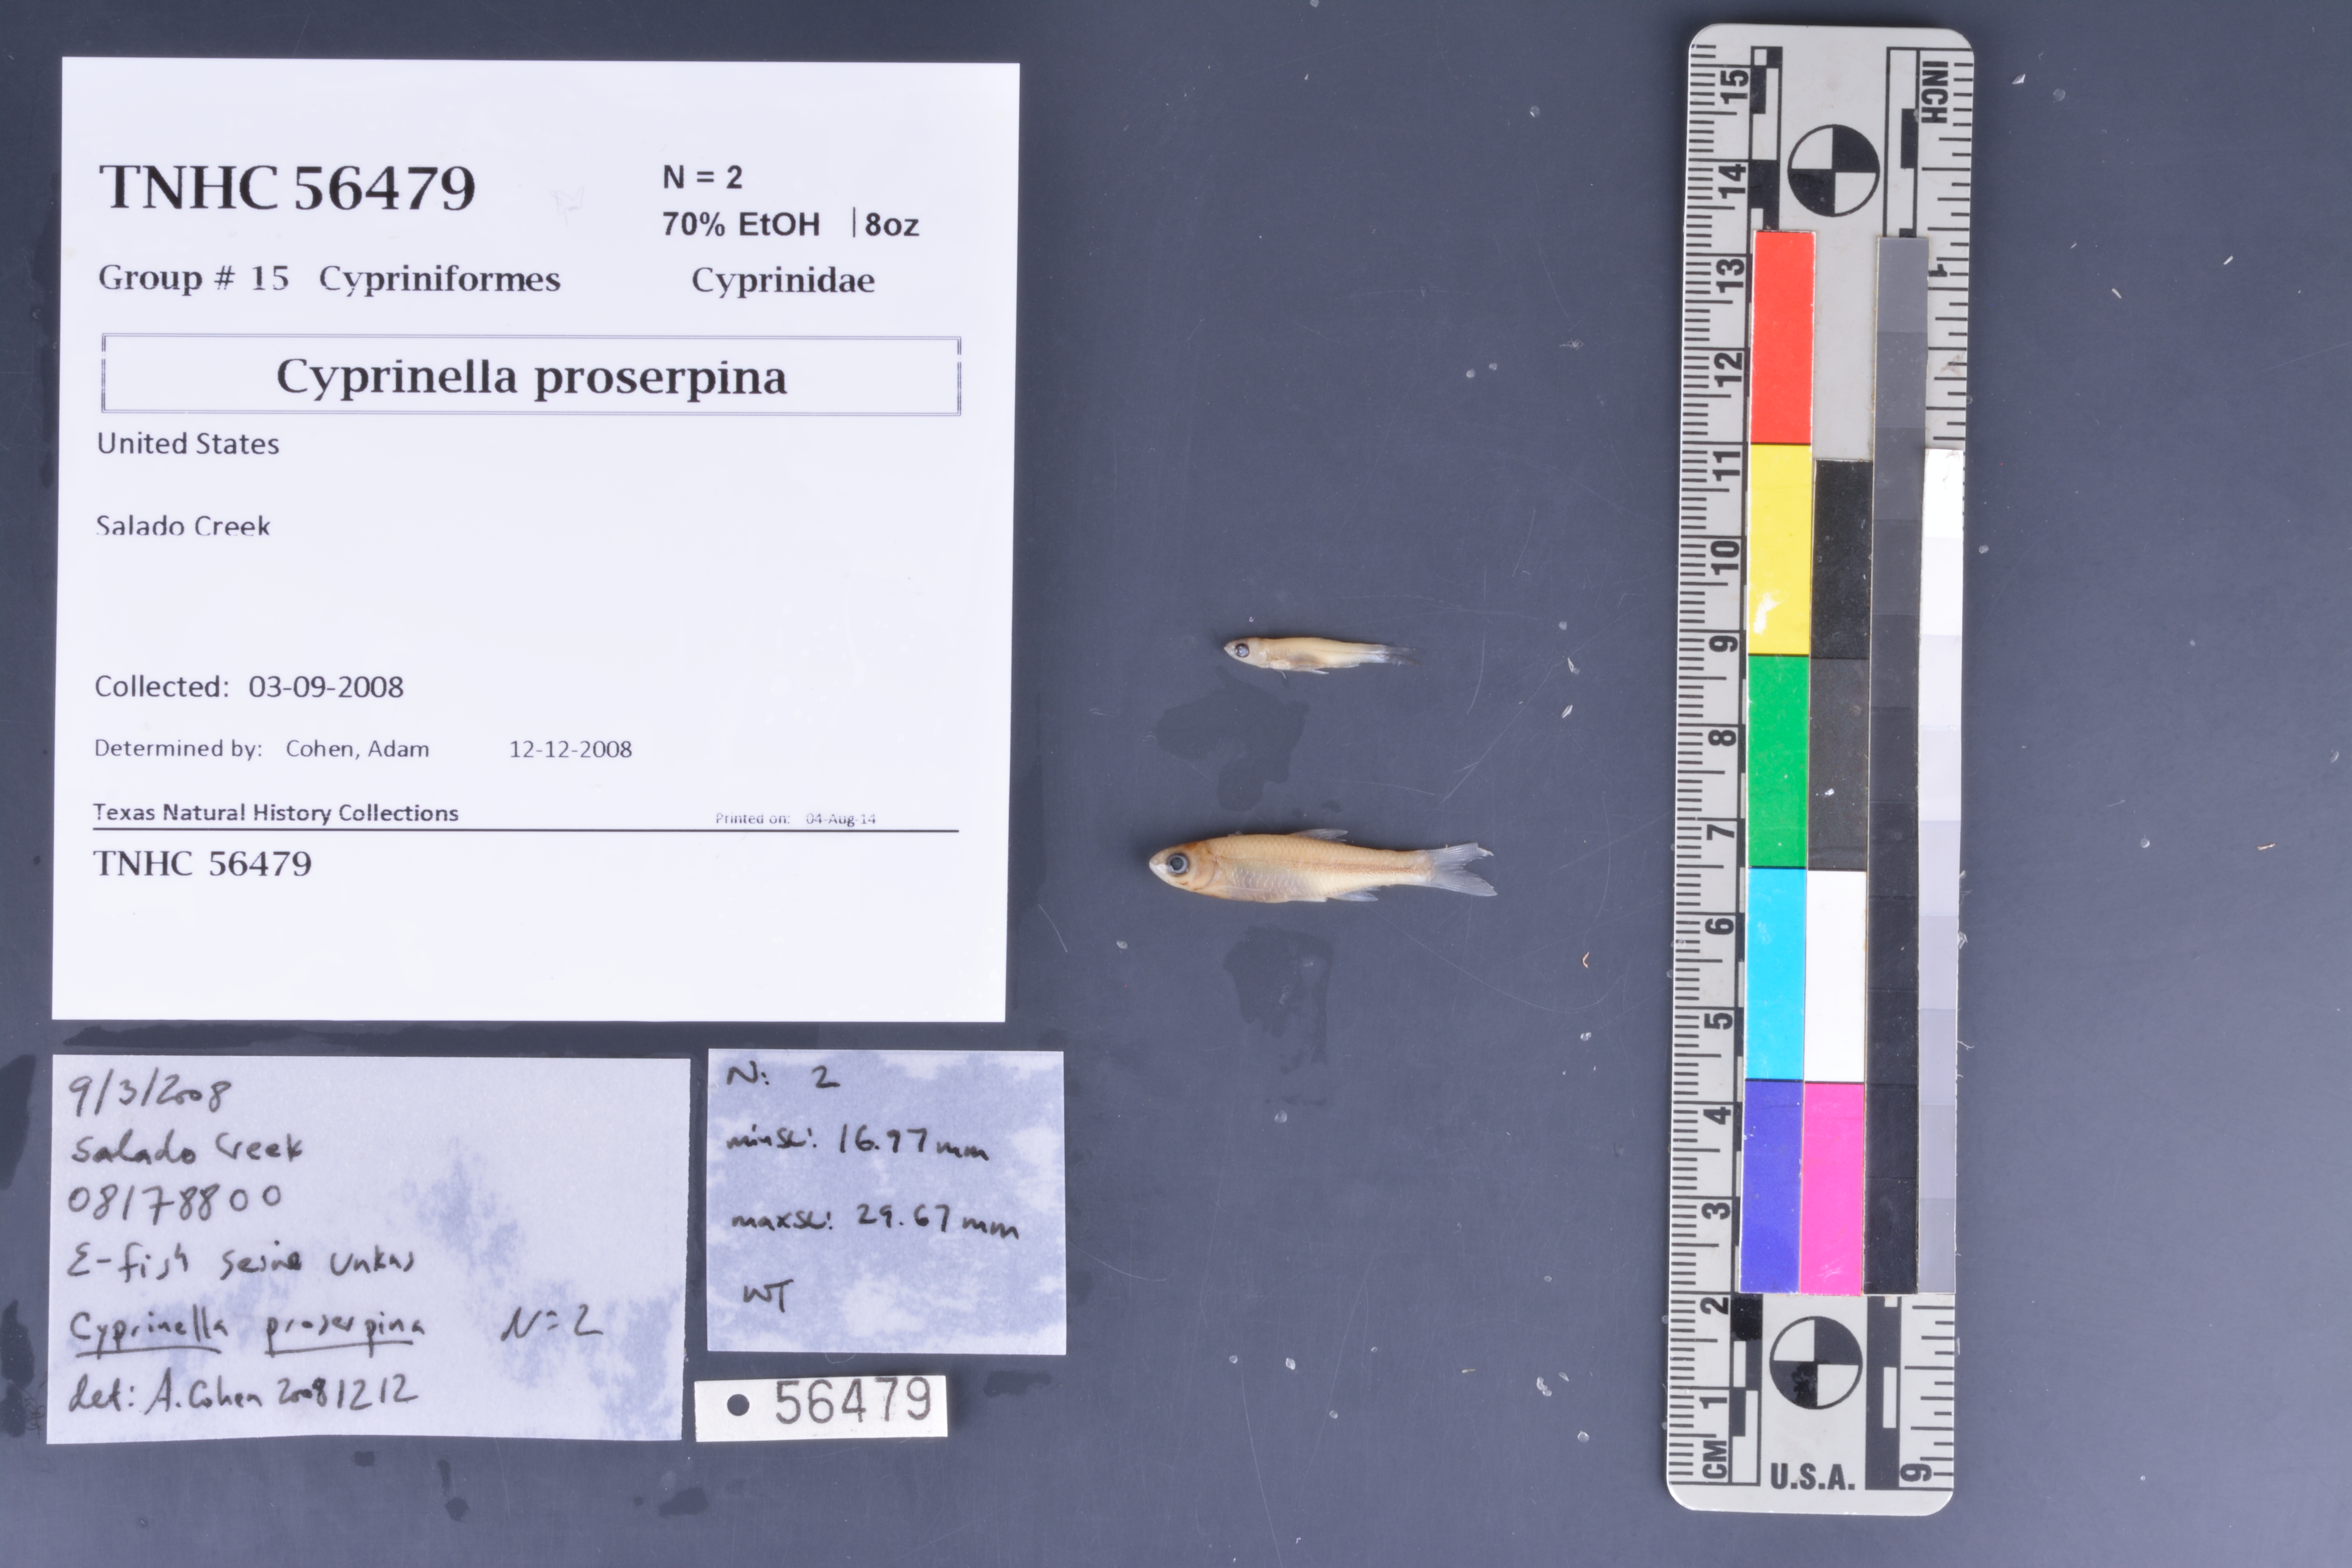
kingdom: Animalia
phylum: Chordata
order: Cypriniformes
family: Cyprinidae
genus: Cyprinella
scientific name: Cyprinella proserpina
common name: Proserpine shiner
